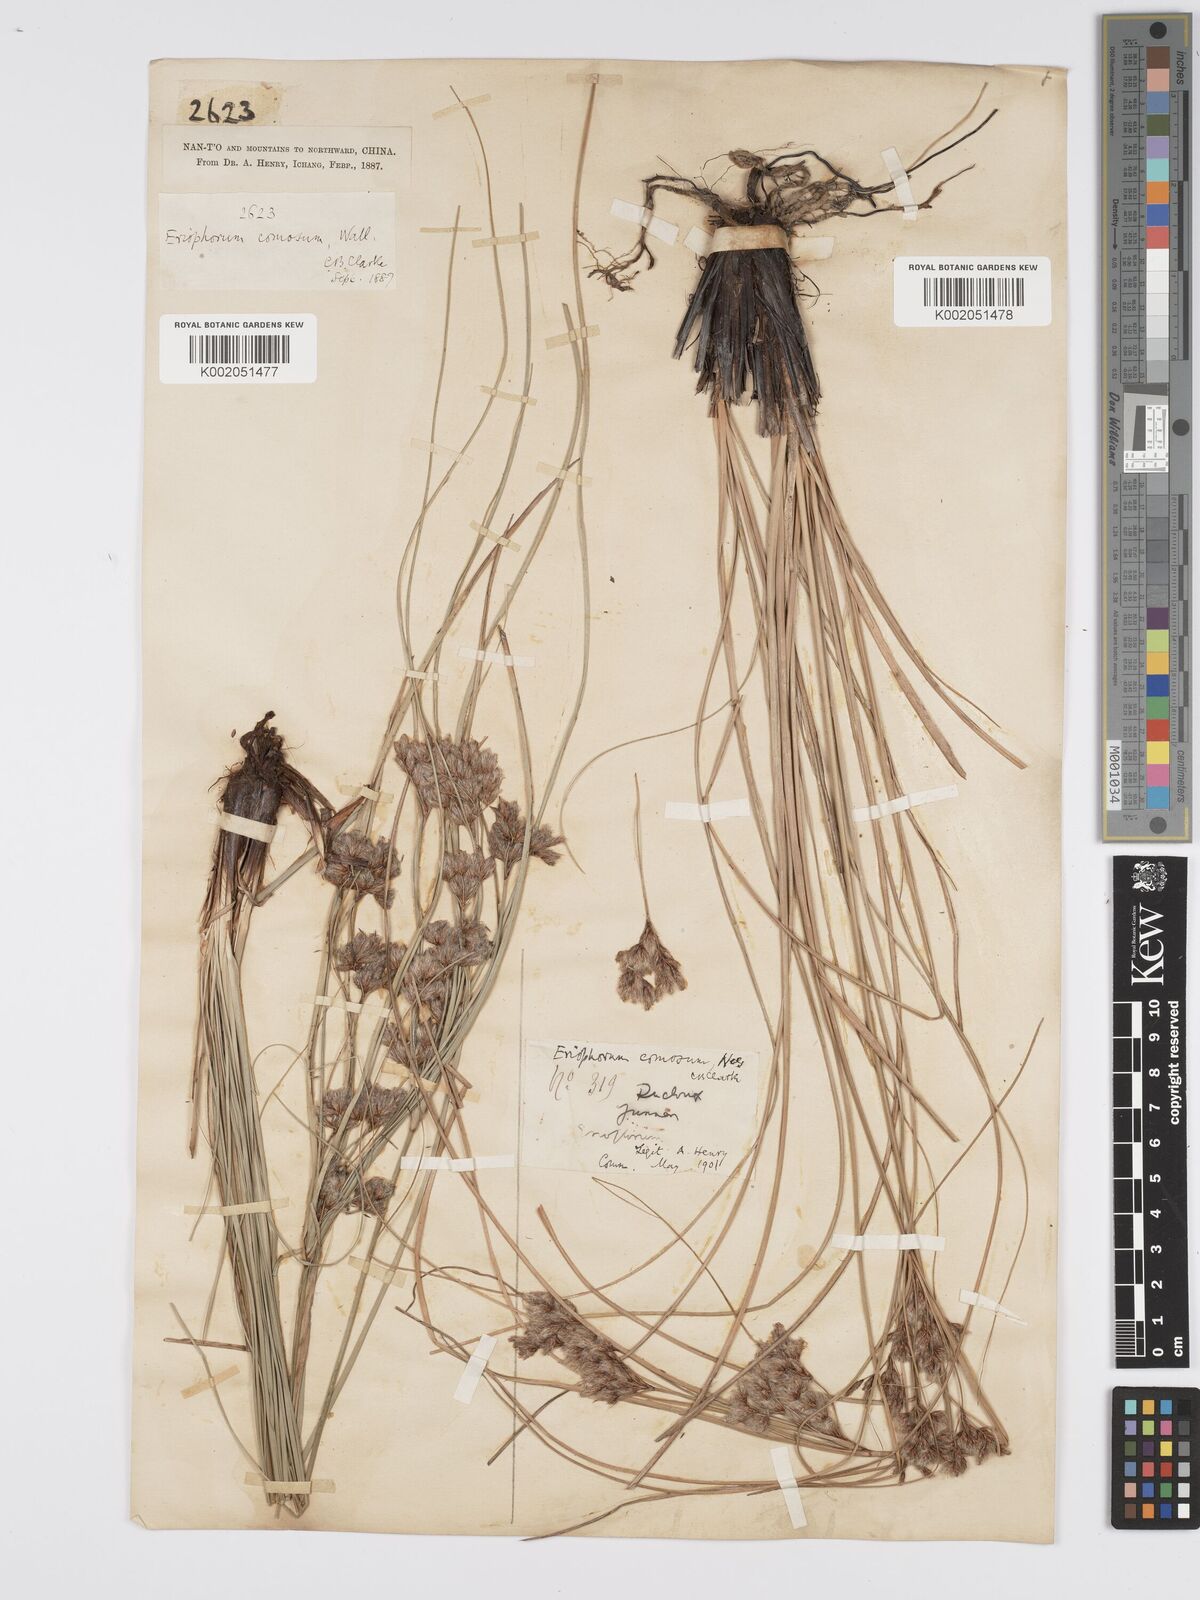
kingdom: Plantae
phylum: Tracheophyta
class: Liliopsida
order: Poales
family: Cyperaceae
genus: Erioscirpus
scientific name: Erioscirpus comosus
